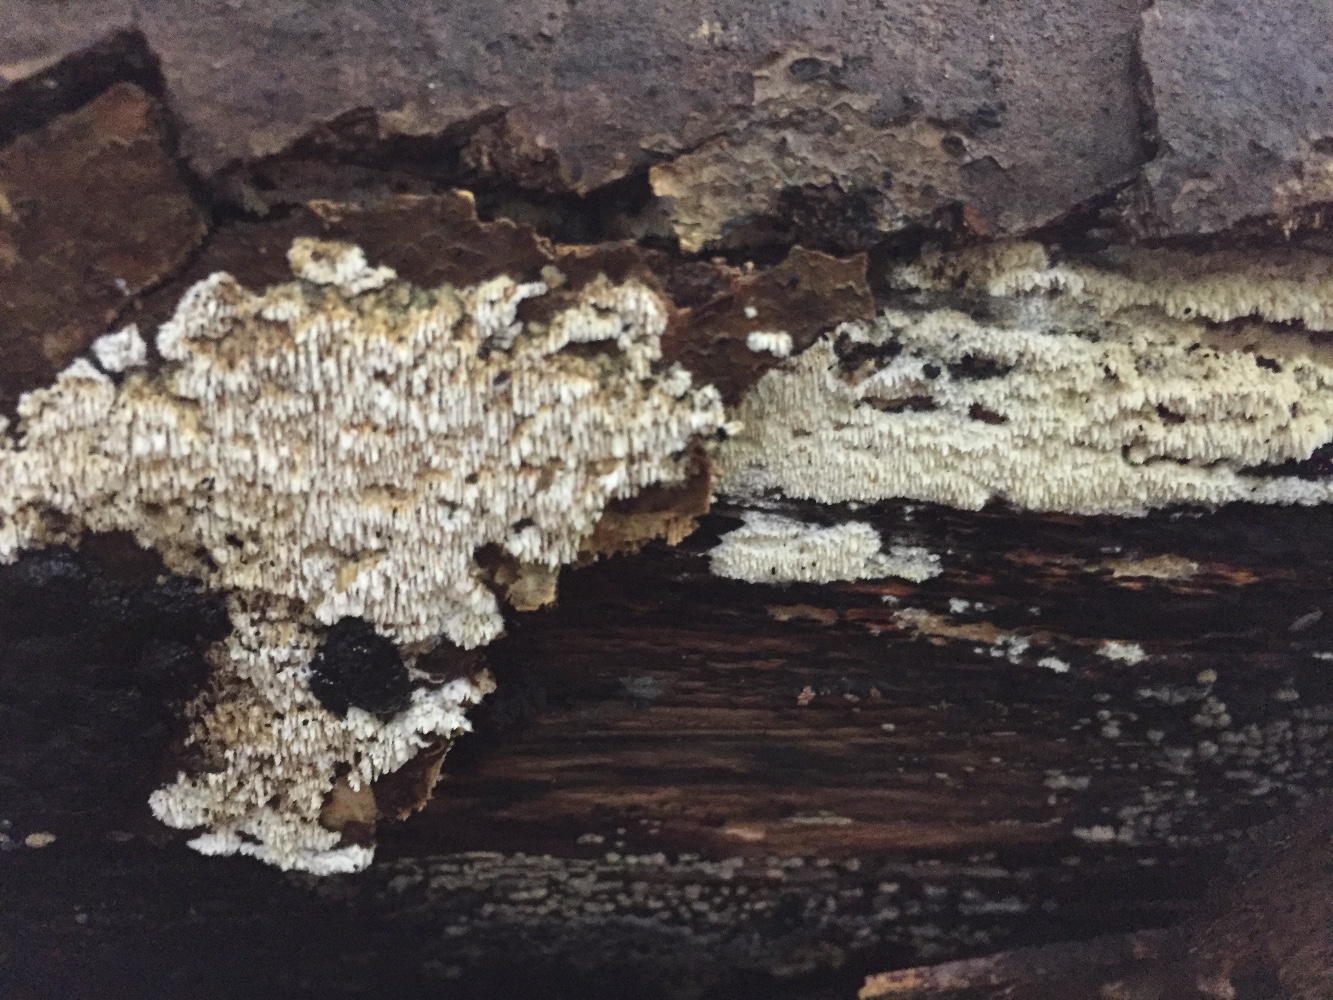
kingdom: Fungi
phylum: Basidiomycota
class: Agaricomycetes
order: Hymenochaetales
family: Schizoporaceae
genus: Xylodon
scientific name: Xylodon subtropicus
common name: labyrint-tandsvamp
